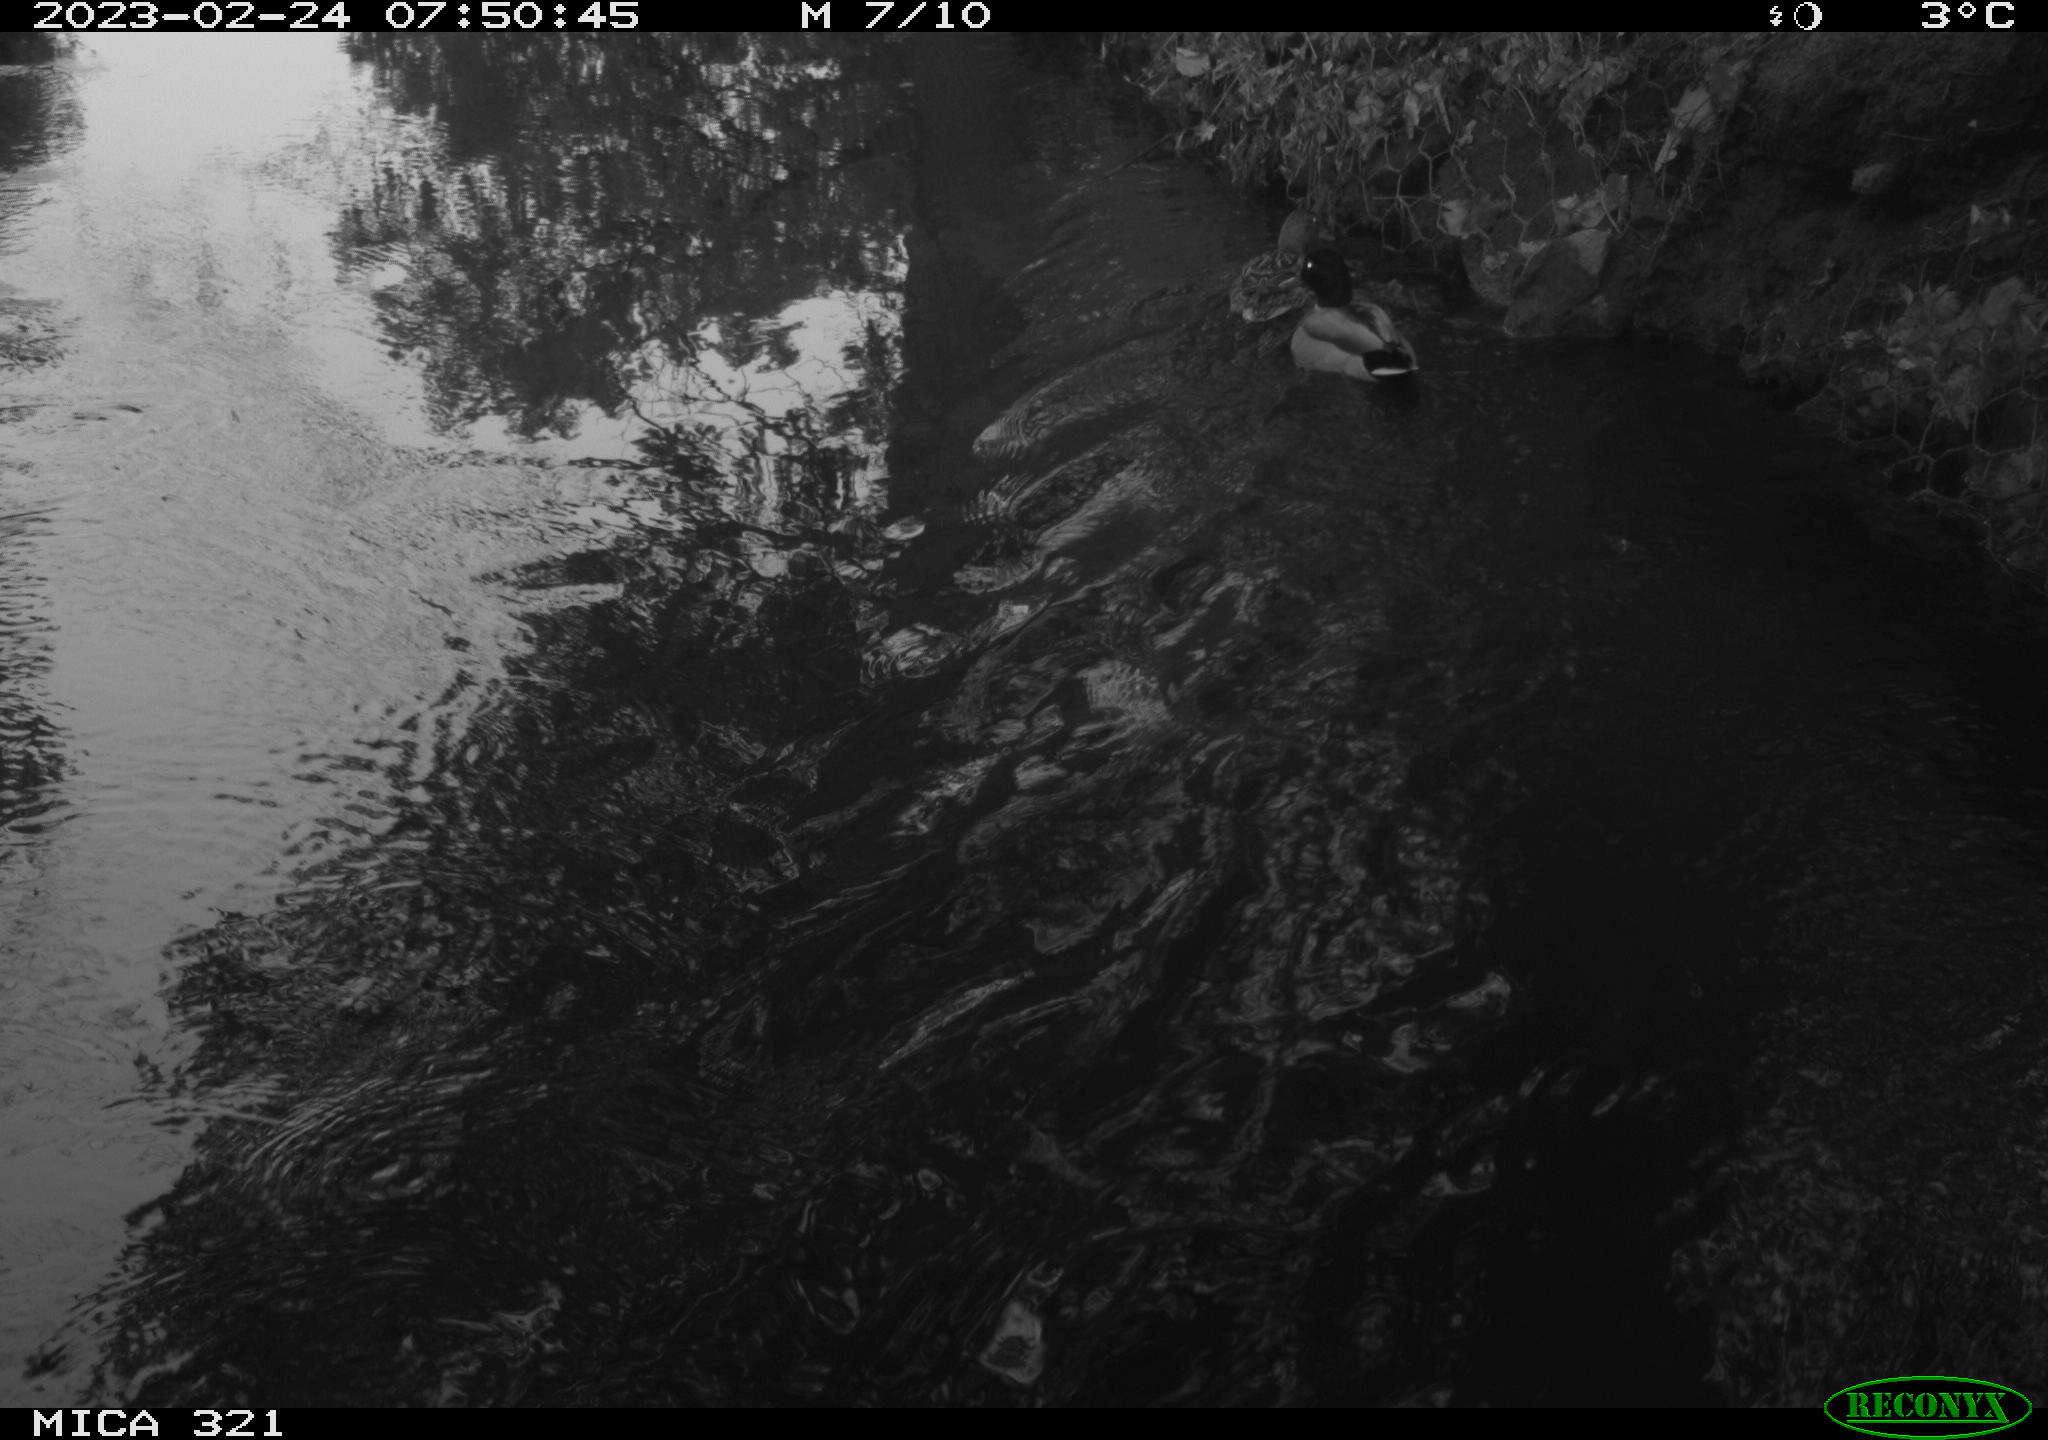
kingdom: Animalia
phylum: Chordata
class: Aves
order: Anseriformes
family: Anatidae
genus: Anas
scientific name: Anas
